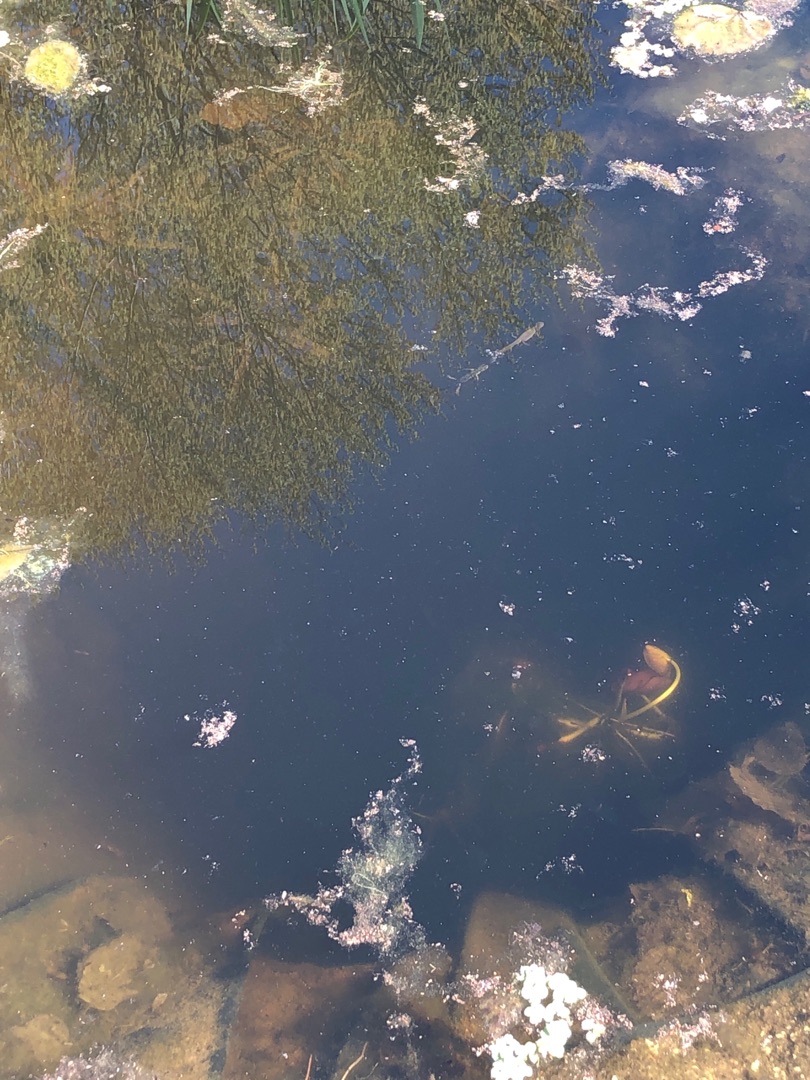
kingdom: Animalia
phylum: Chordata
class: Amphibia
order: Caudata
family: Salamandridae
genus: Lissotriton
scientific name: Lissotriton vulgaris
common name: Lille vandsalamander
